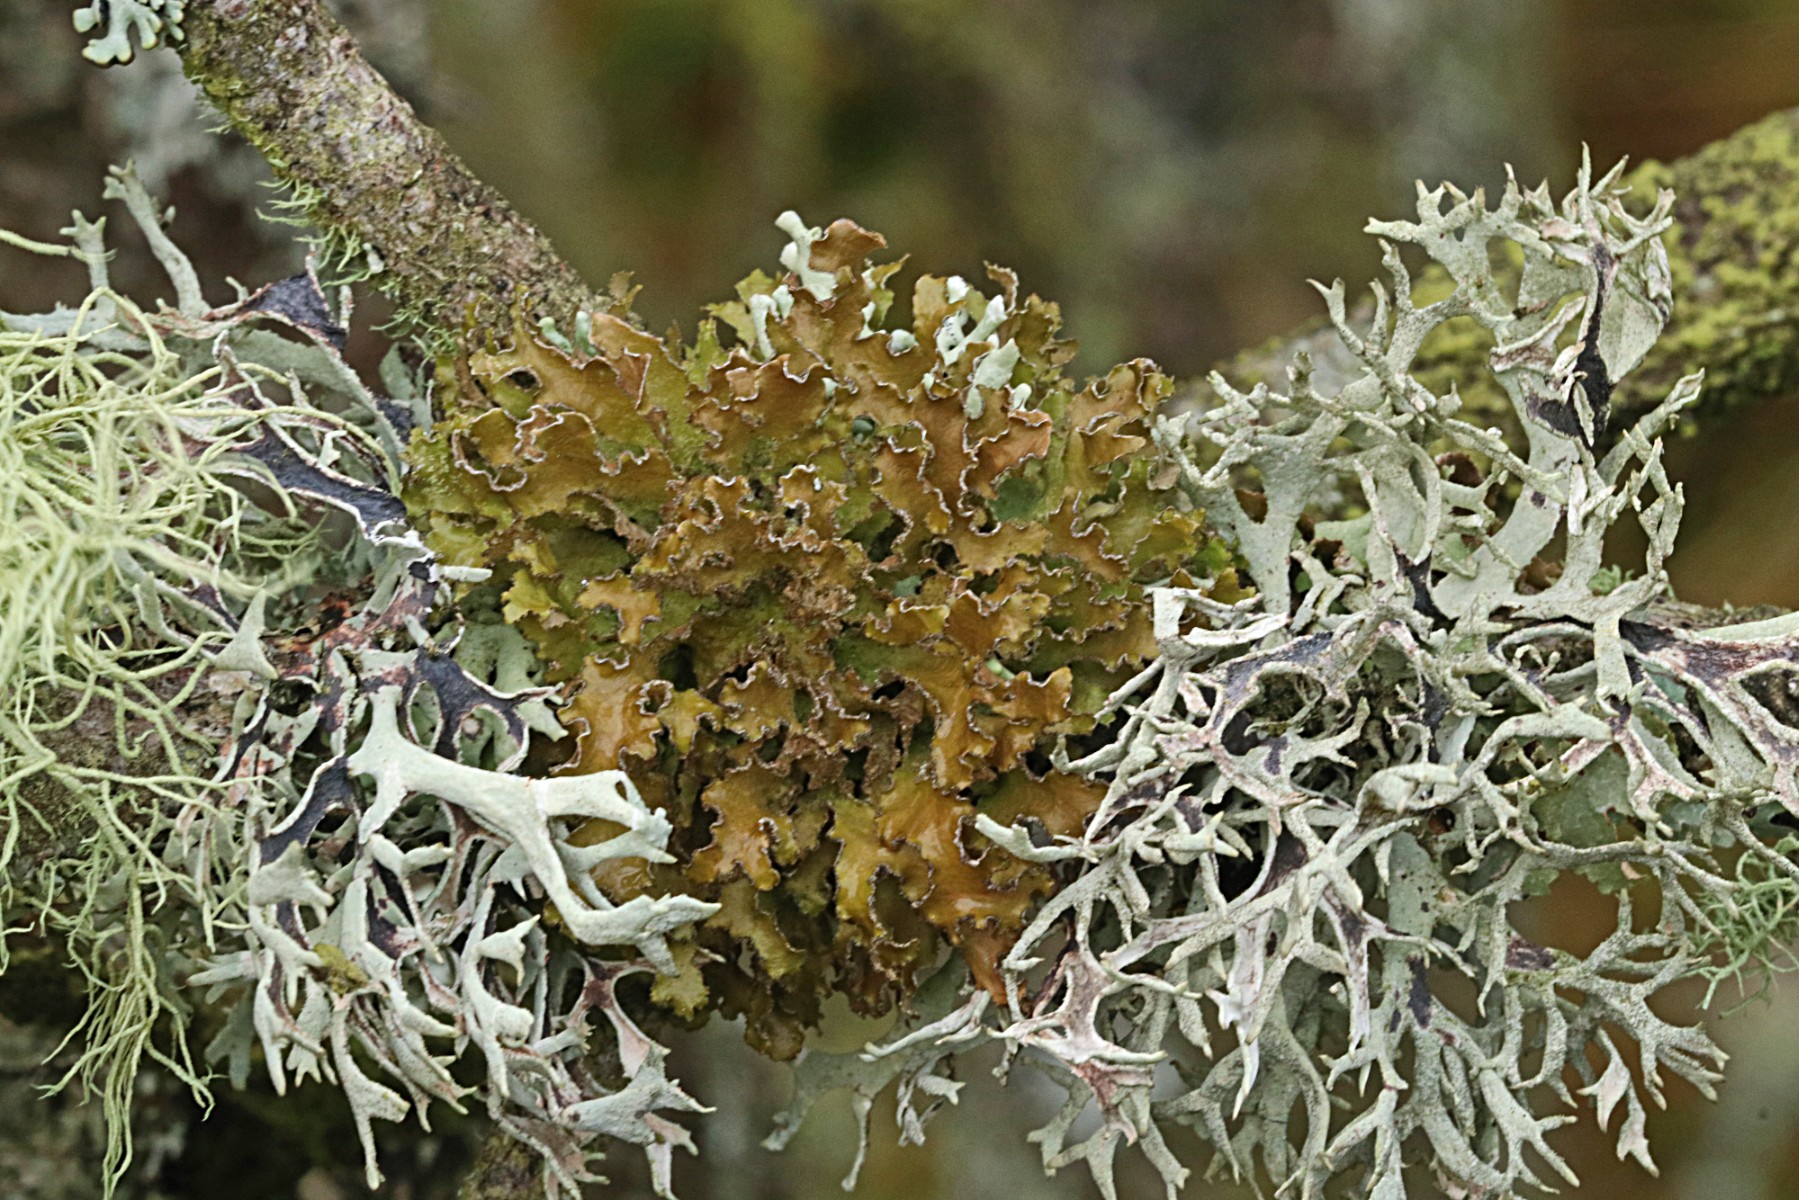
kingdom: Fungi
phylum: Ascomycota
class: Lecanoromycetes
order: Lecanorales
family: Parmeliaceae
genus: Nephromopsis
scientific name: Nephromopsis chlorophylla
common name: olivenbrun kruslav
